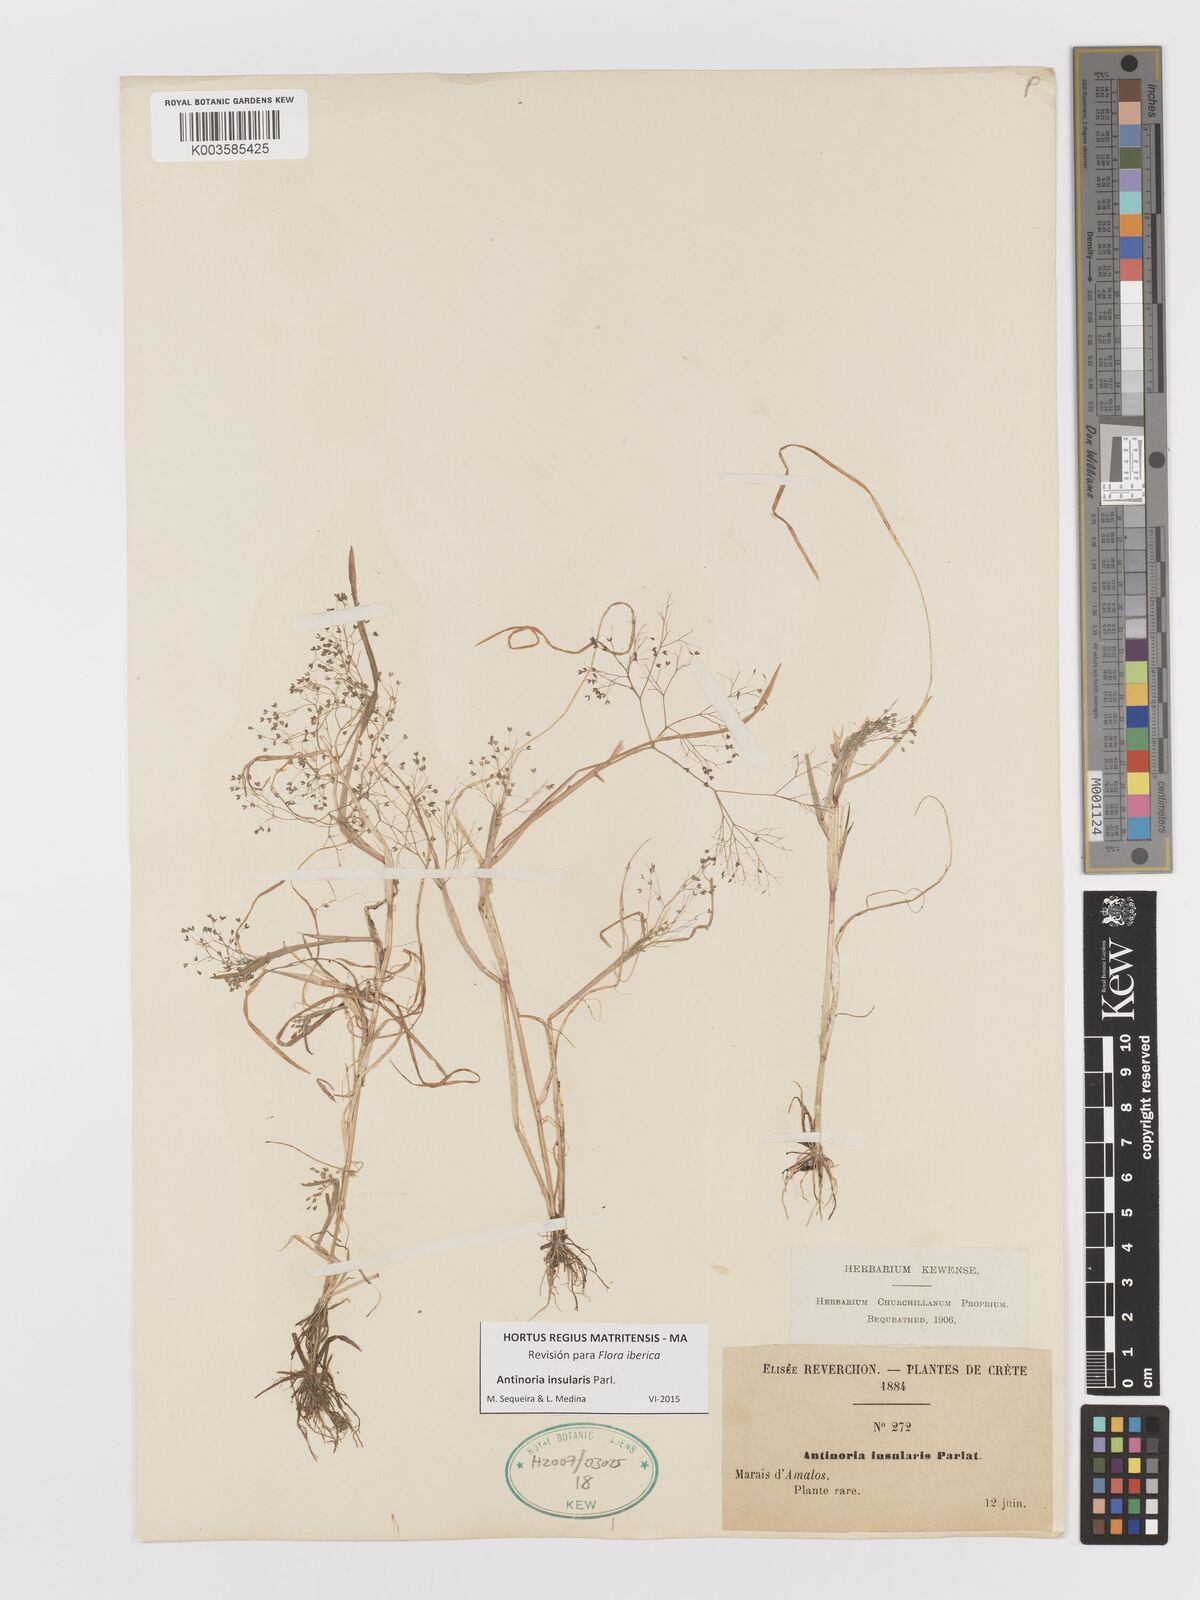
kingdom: Plantae
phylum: Tracheophyta
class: Liliopsida
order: Poales
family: Poaceae
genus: Antinoria
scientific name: Antinoria insularis
